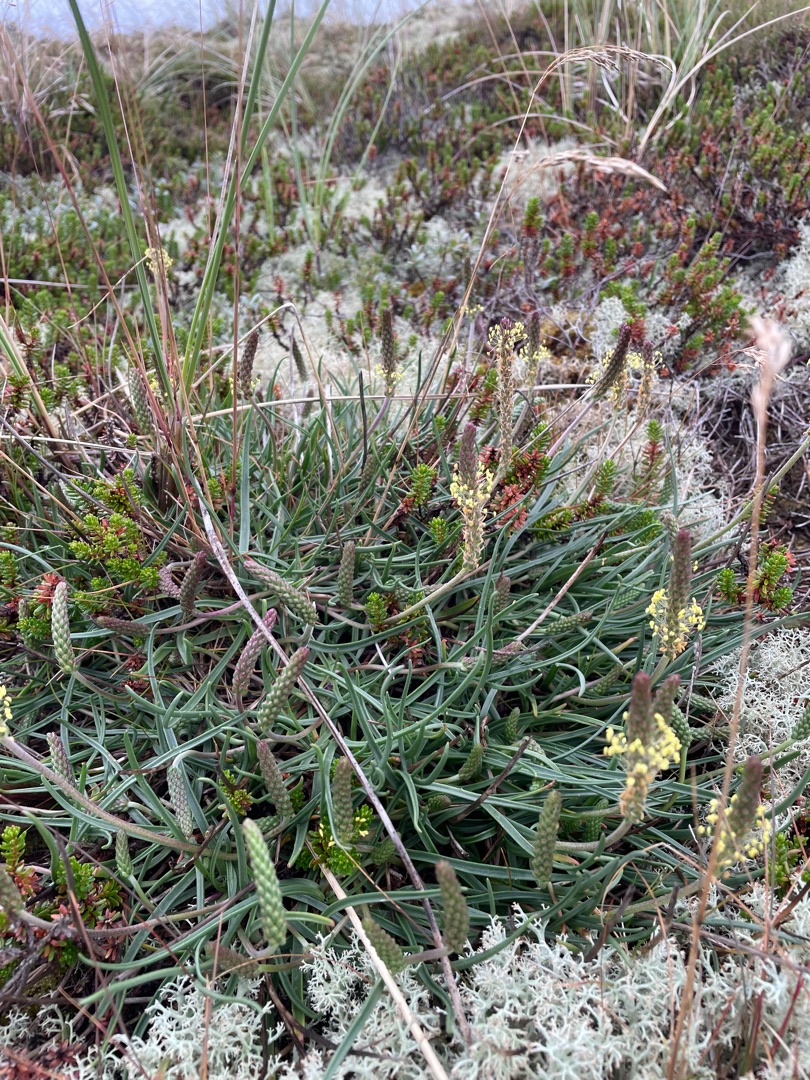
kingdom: Plantae
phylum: Tracheophyta
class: Magnoliopsida
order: Lamiales
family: Plantaginaceae
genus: Plantago
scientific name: Plantago maritima
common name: Strand-vejbred
